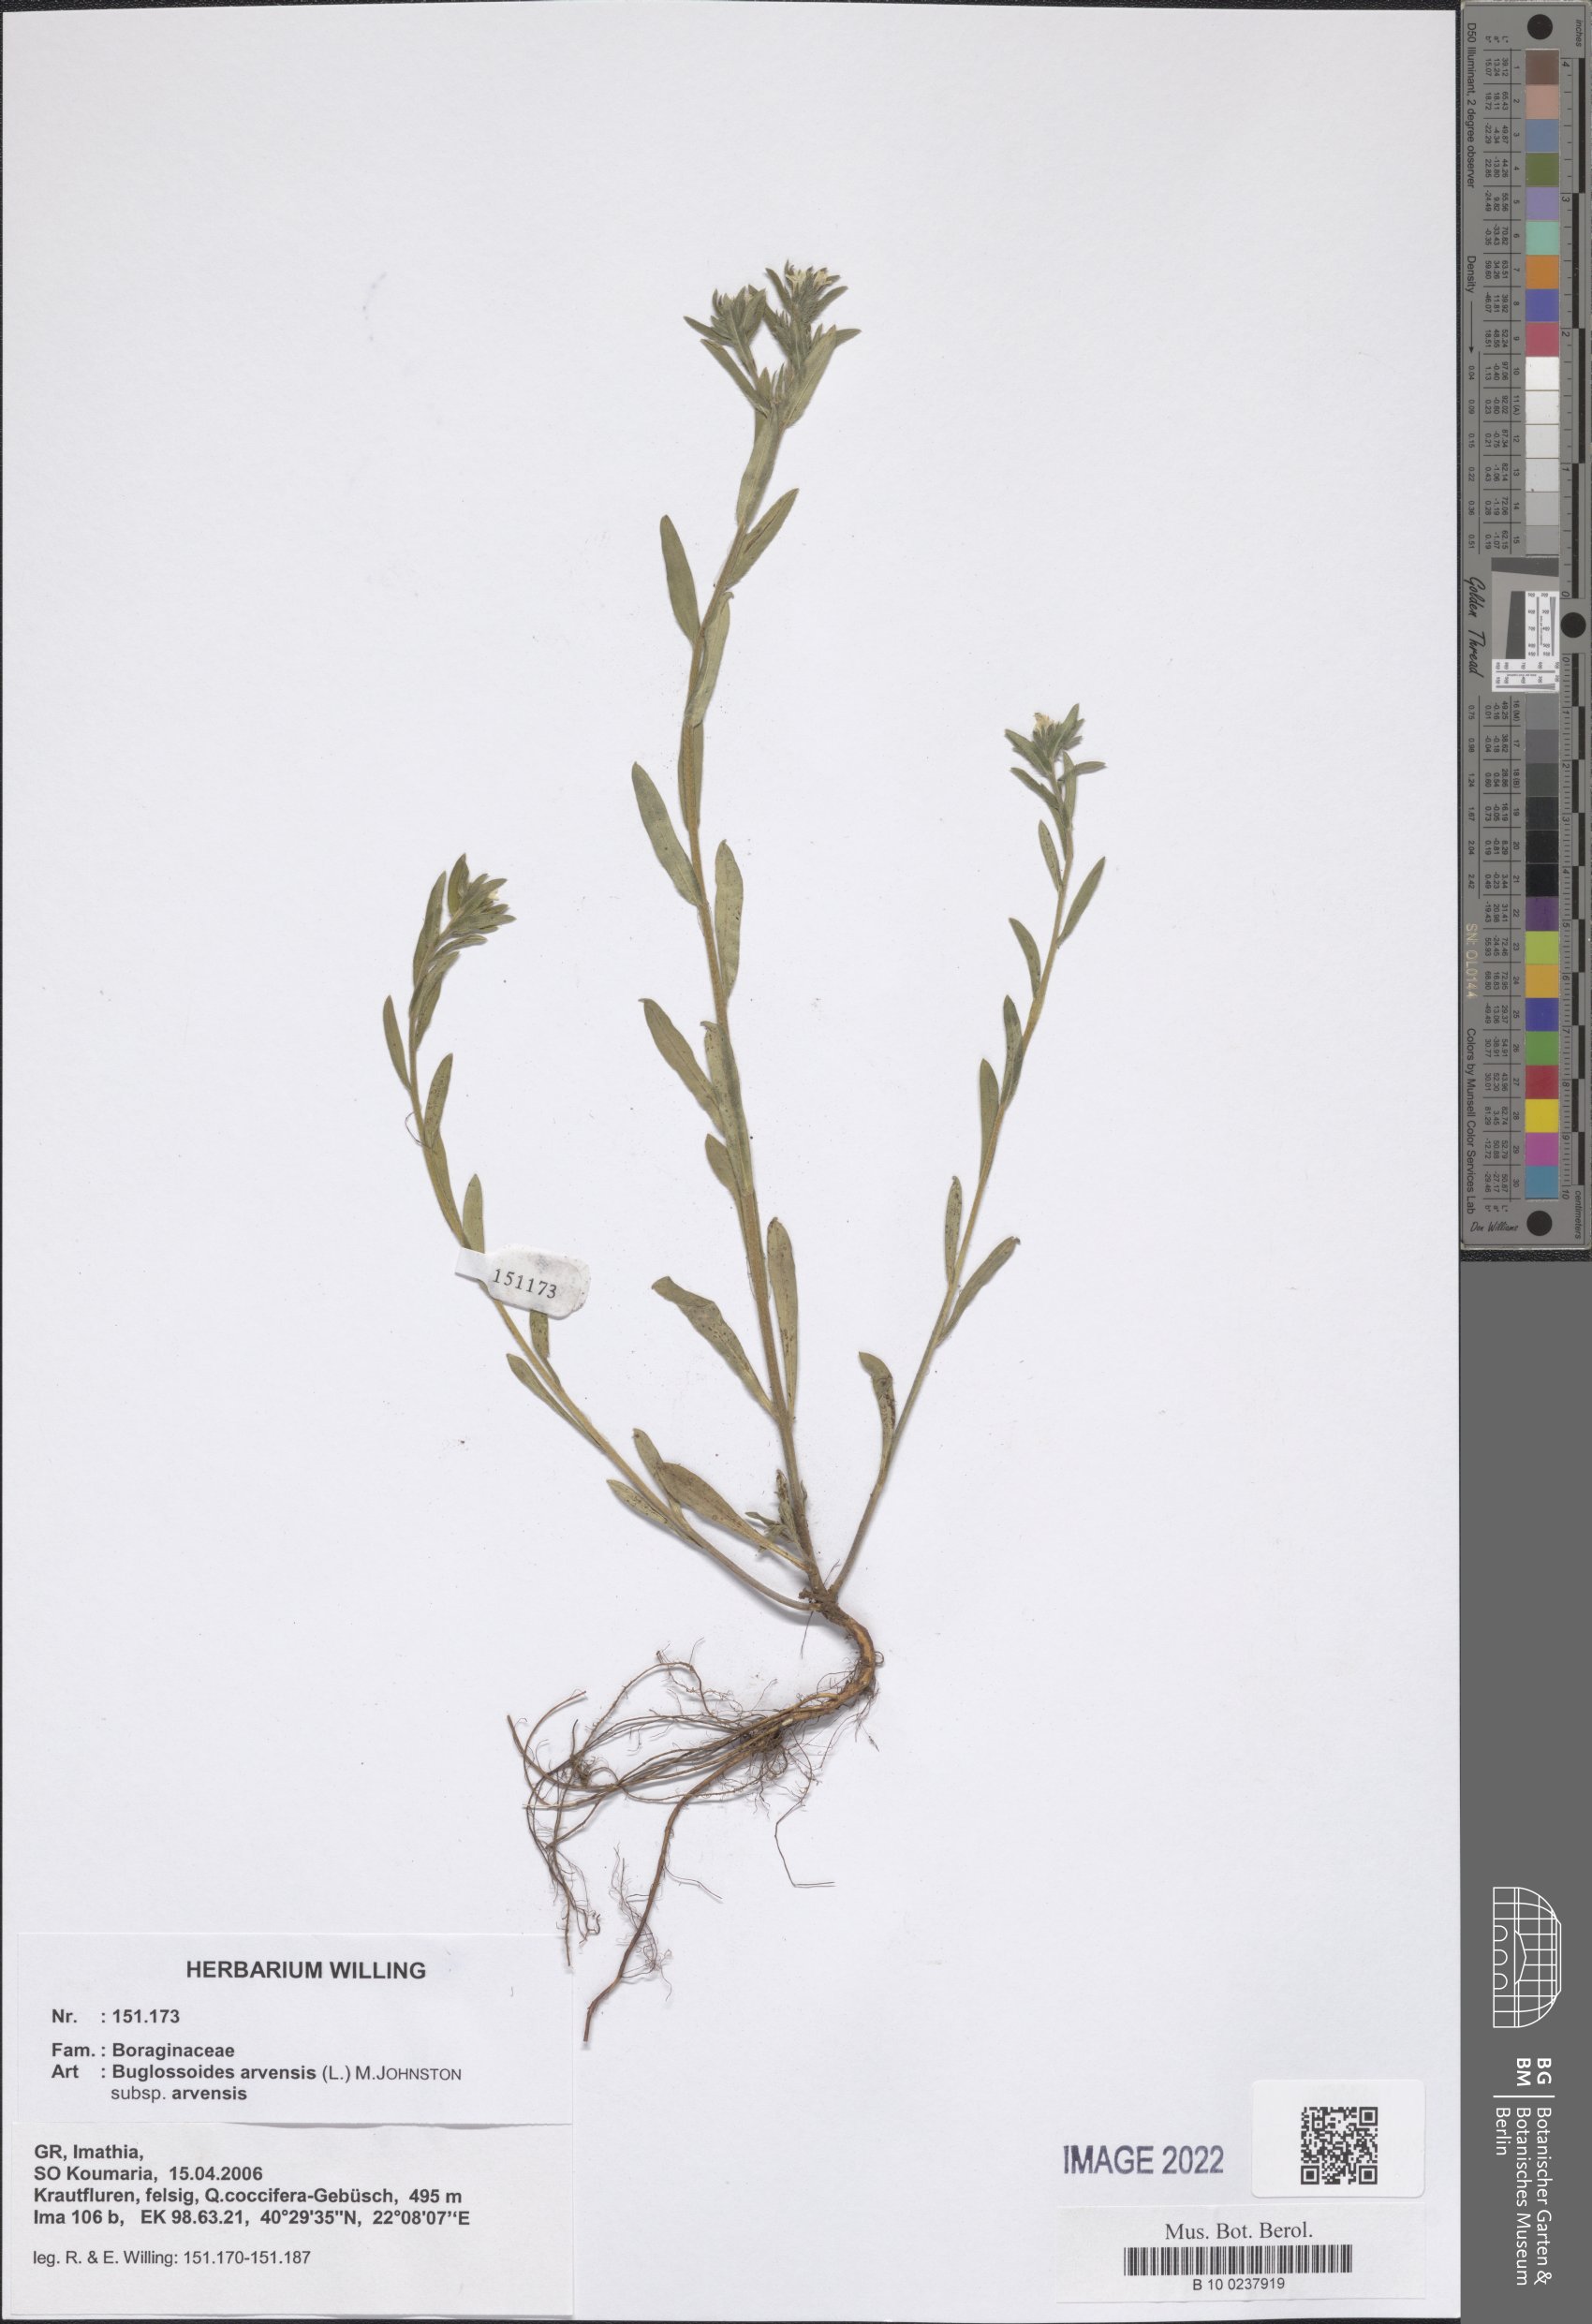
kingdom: Plantae
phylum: Tracheophyta
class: Magnoliopsida
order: Boraginales
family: Boraginaceae
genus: Buglossoides
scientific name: Buglossoides arvensis
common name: Corn gromwell
